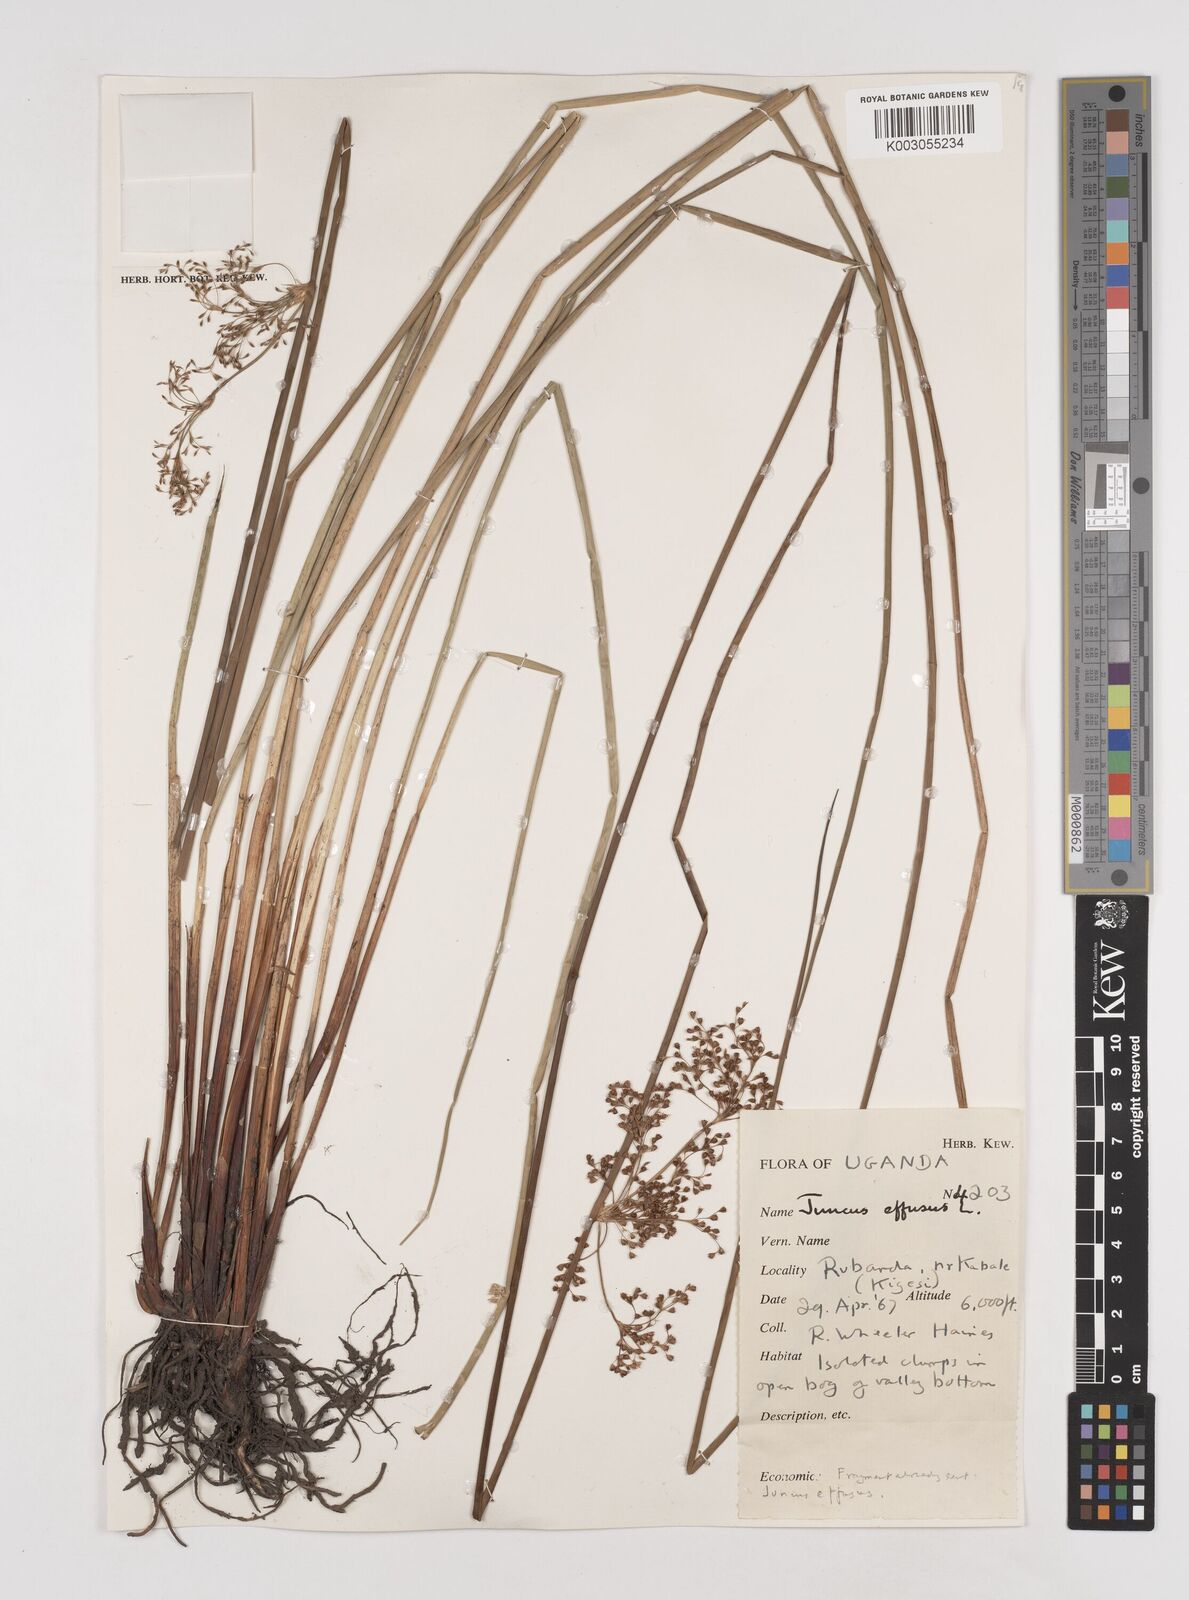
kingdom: Plantae
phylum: Tracheophyta
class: Liliopsida
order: Poales
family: Juncaceae
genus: Juncus
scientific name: Juncus effusus
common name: Soft rush
